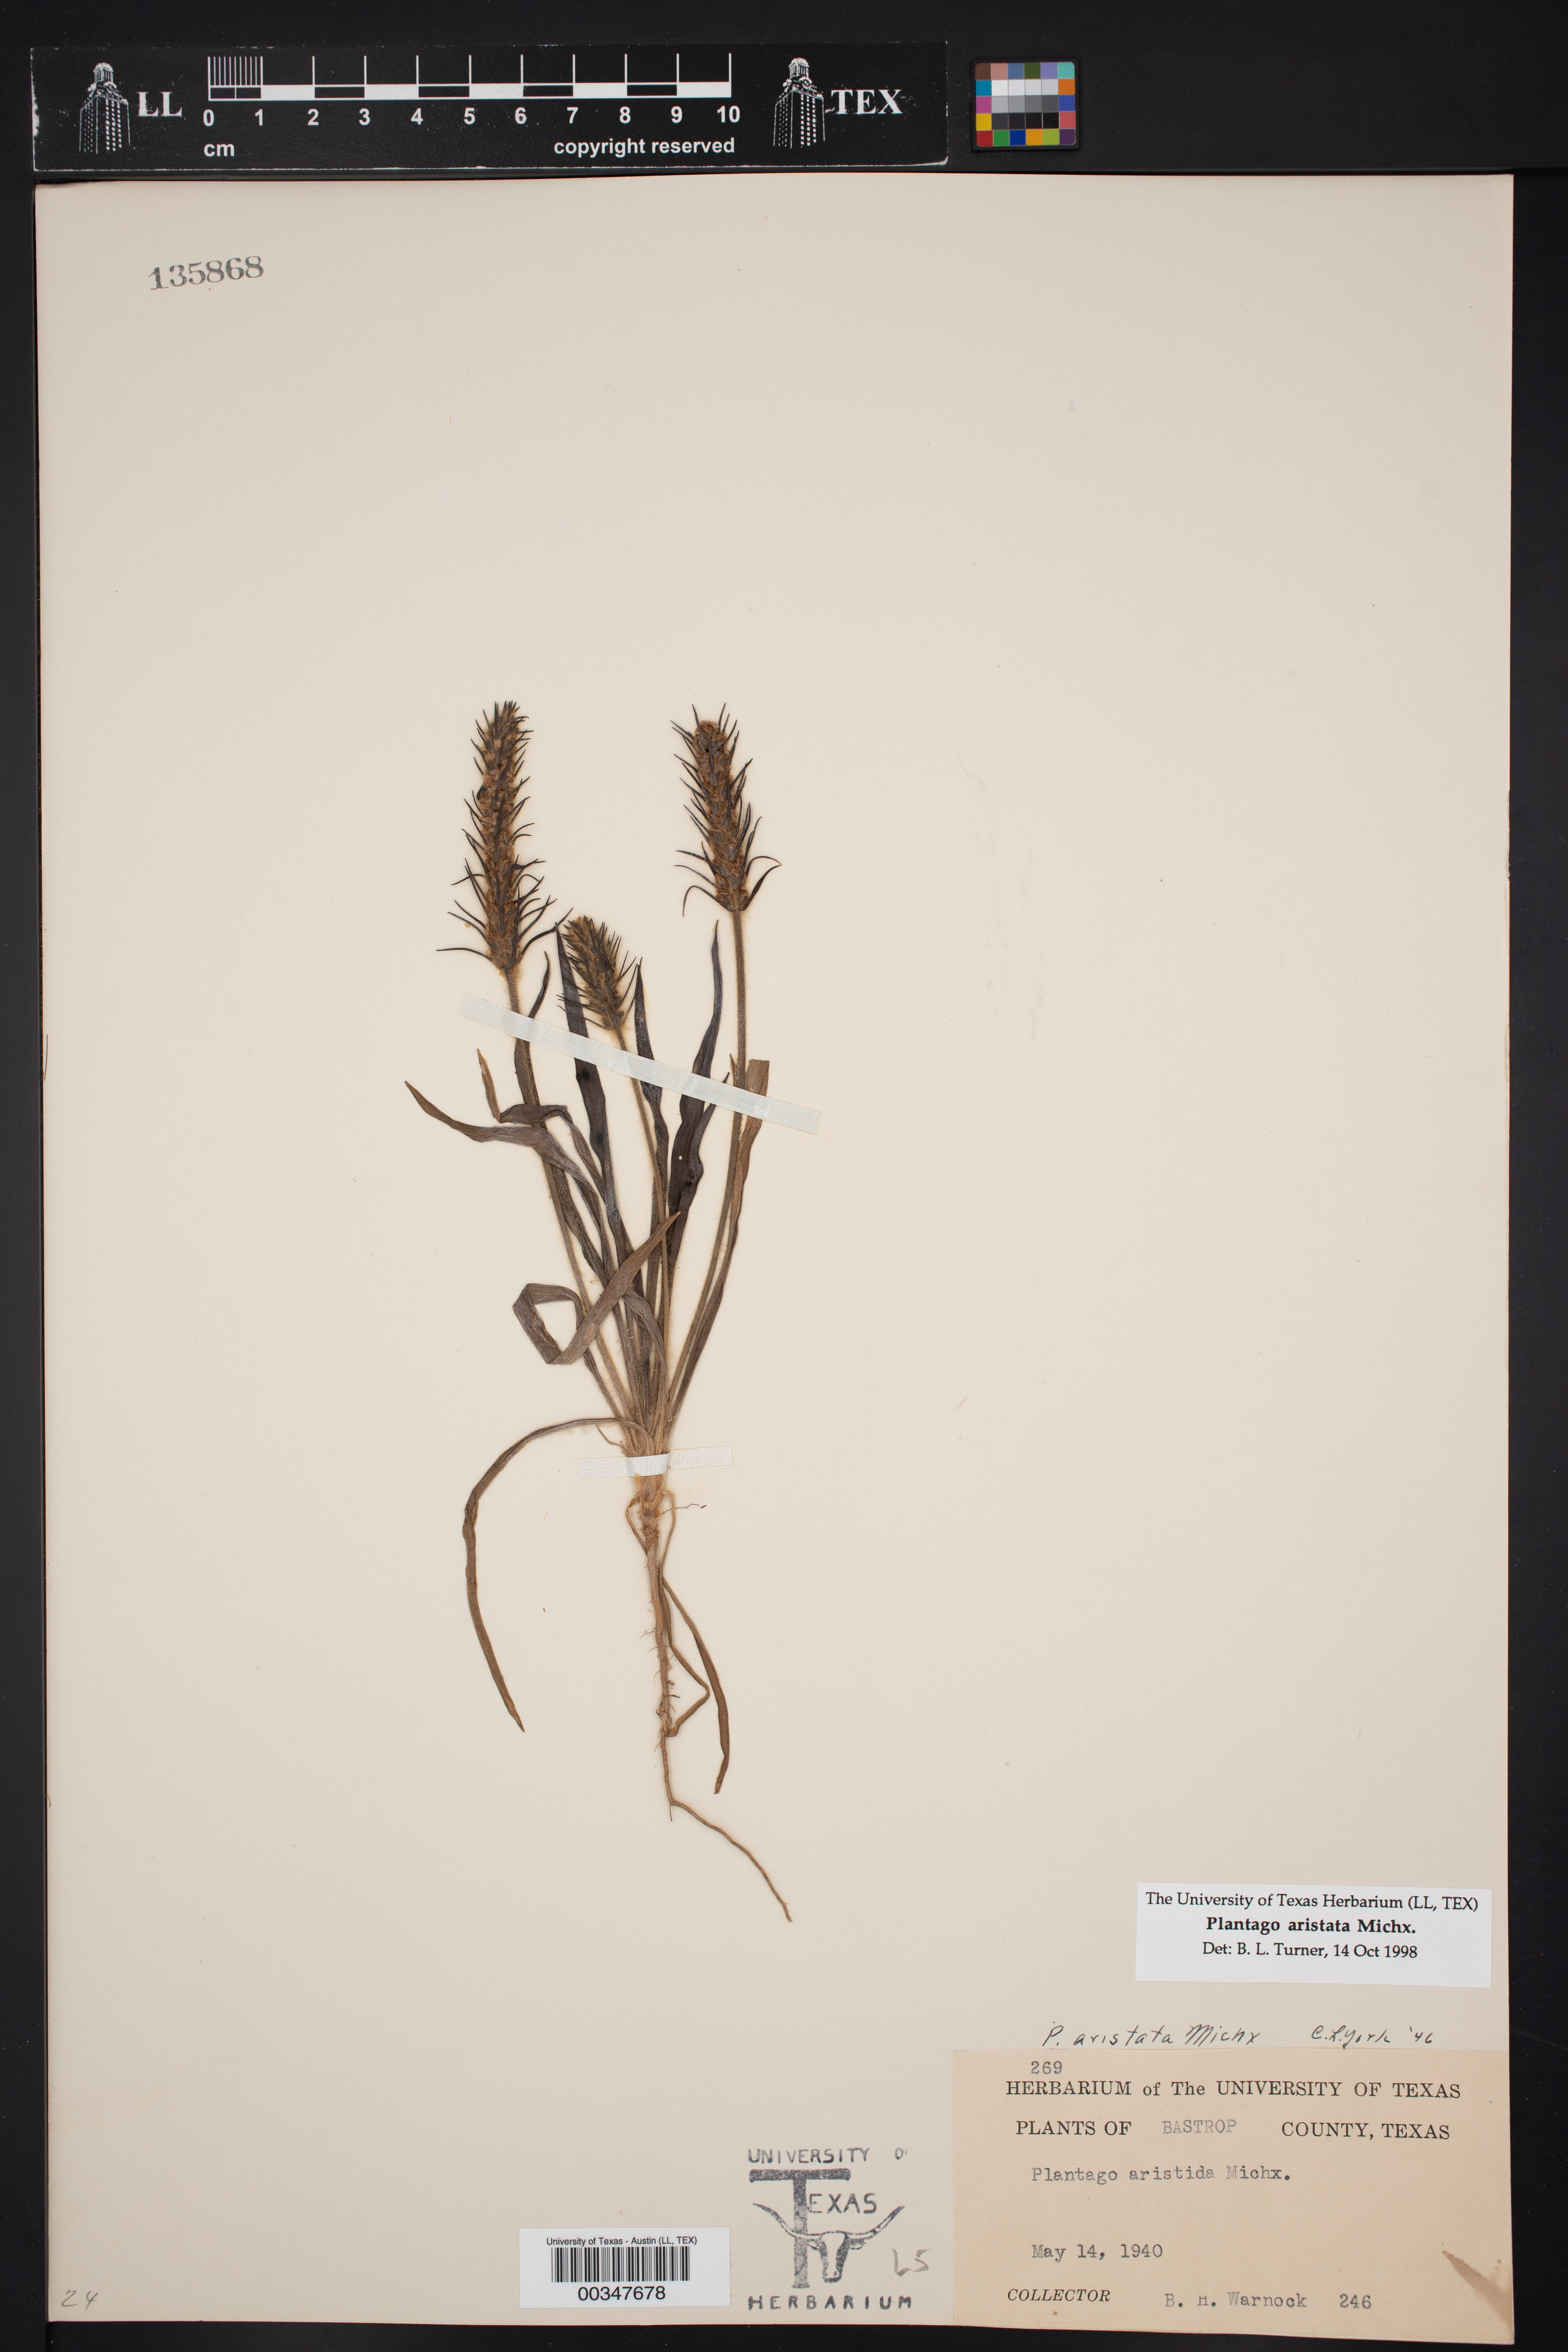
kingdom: Plantae
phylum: Tracheophyta
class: Magnoliopsida
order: Lamiales
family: Plantaginaceae
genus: Plantago
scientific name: Plantago aristata
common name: Bracted plantain
